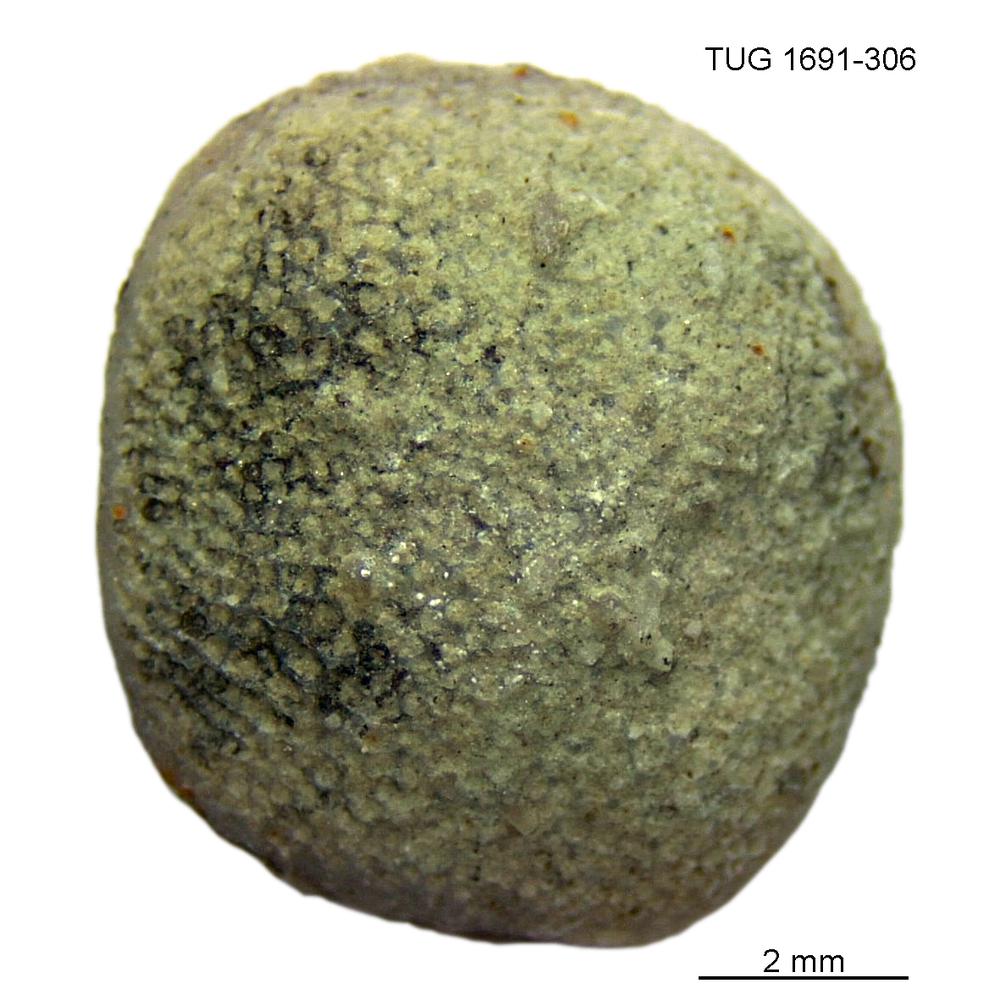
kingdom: Animalia
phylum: Bryozoa
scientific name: Bryozoa
